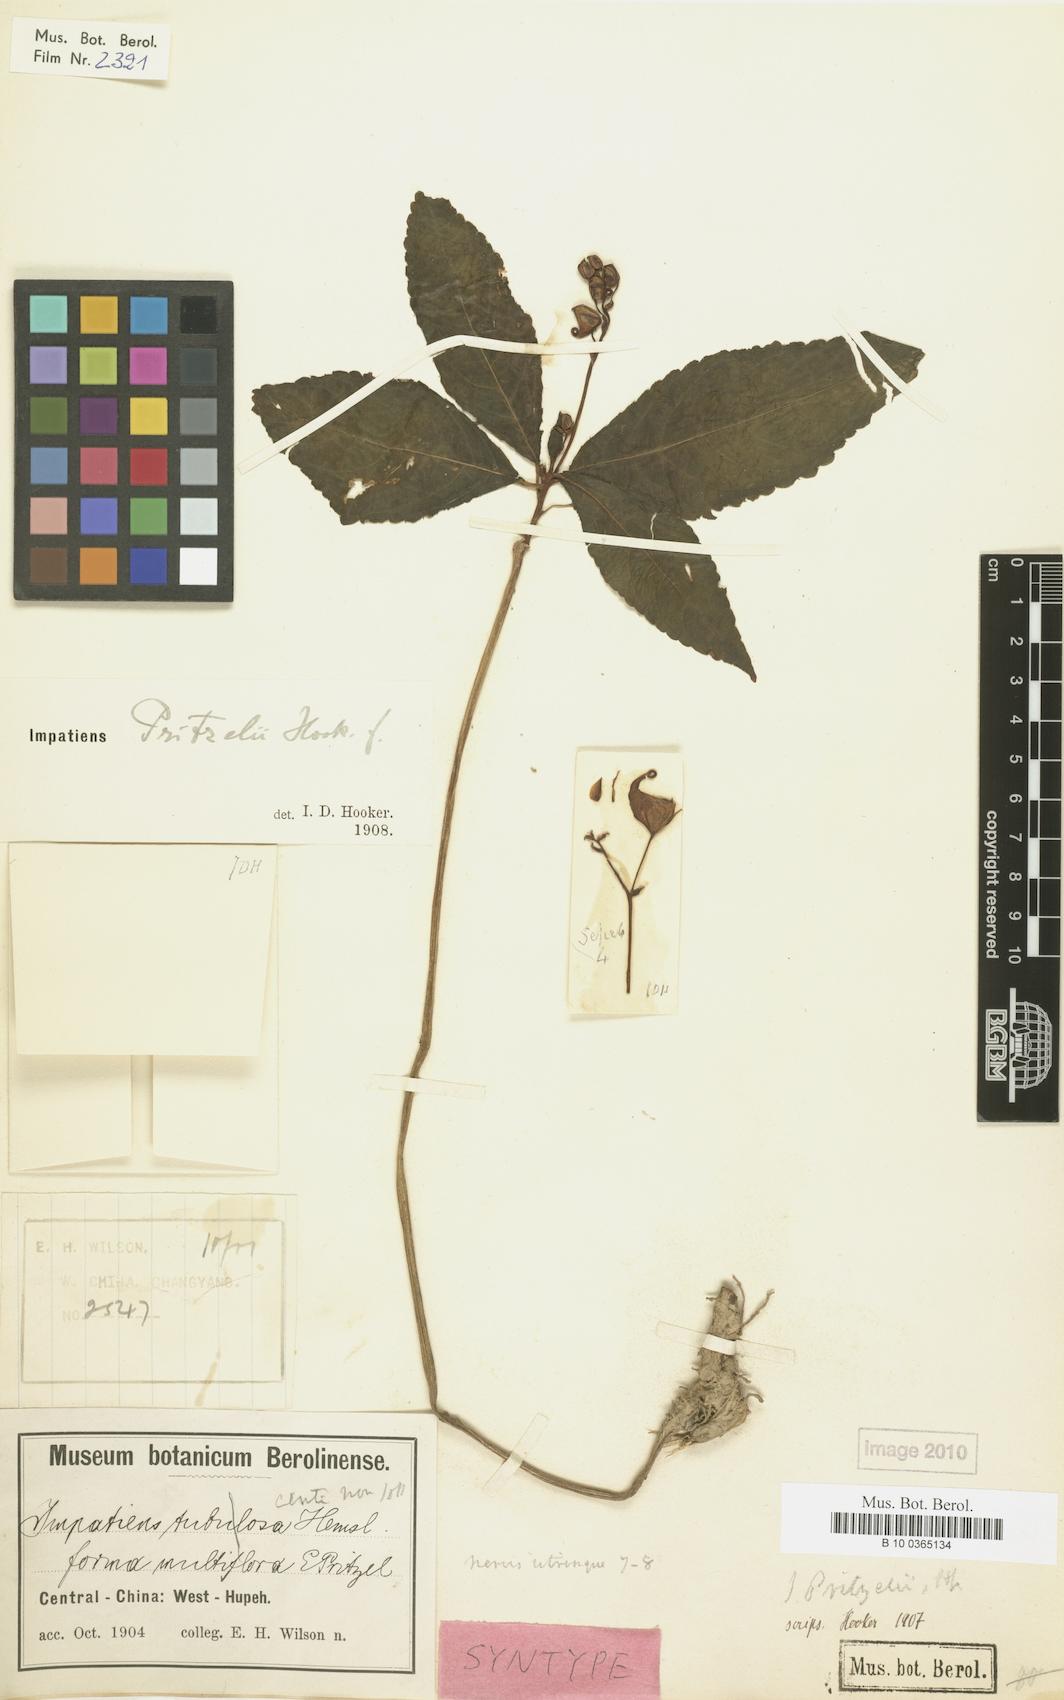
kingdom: Plantae
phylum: Tracheophyta
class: Magnoliopsida
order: Ericales
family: Balsaminaceae
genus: Impatiens
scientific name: Impatiens pritzelii
